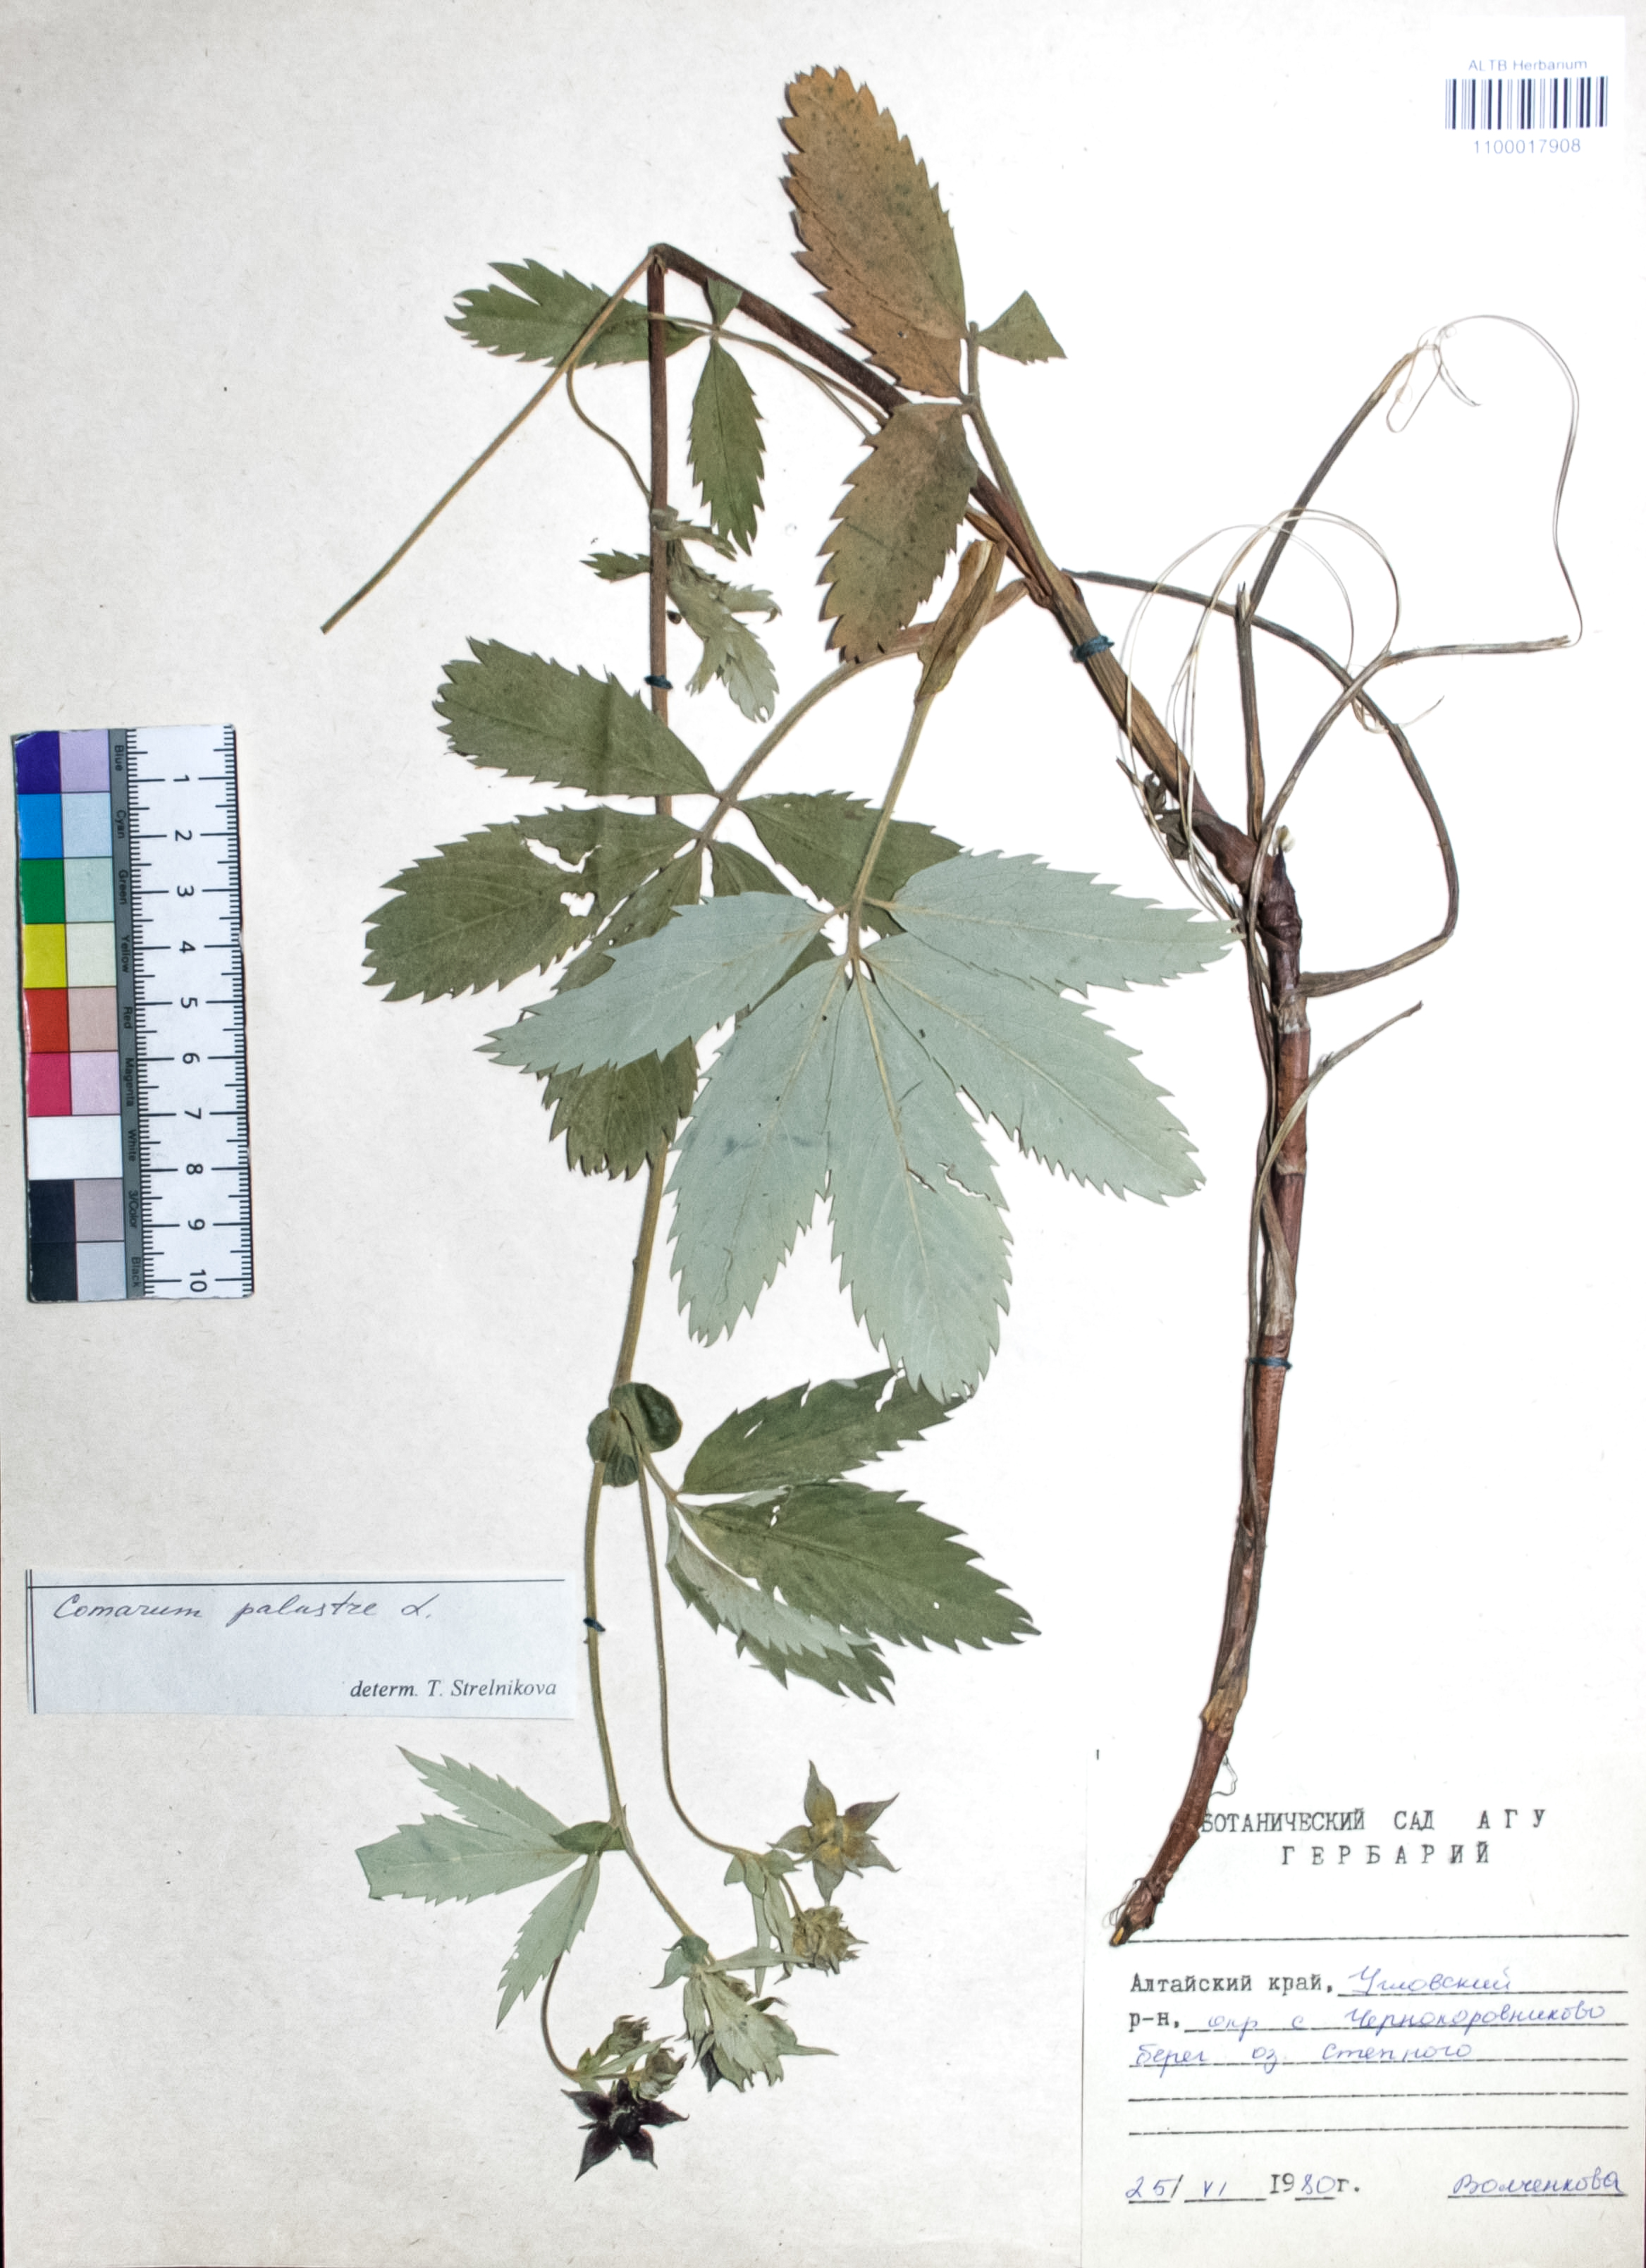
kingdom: Plantae
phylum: Tracheophyta
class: Magnoliopsida
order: Rosales
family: Rosaceae
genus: Comarum
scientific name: Comarum palustre
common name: Marsh cinquefoil
